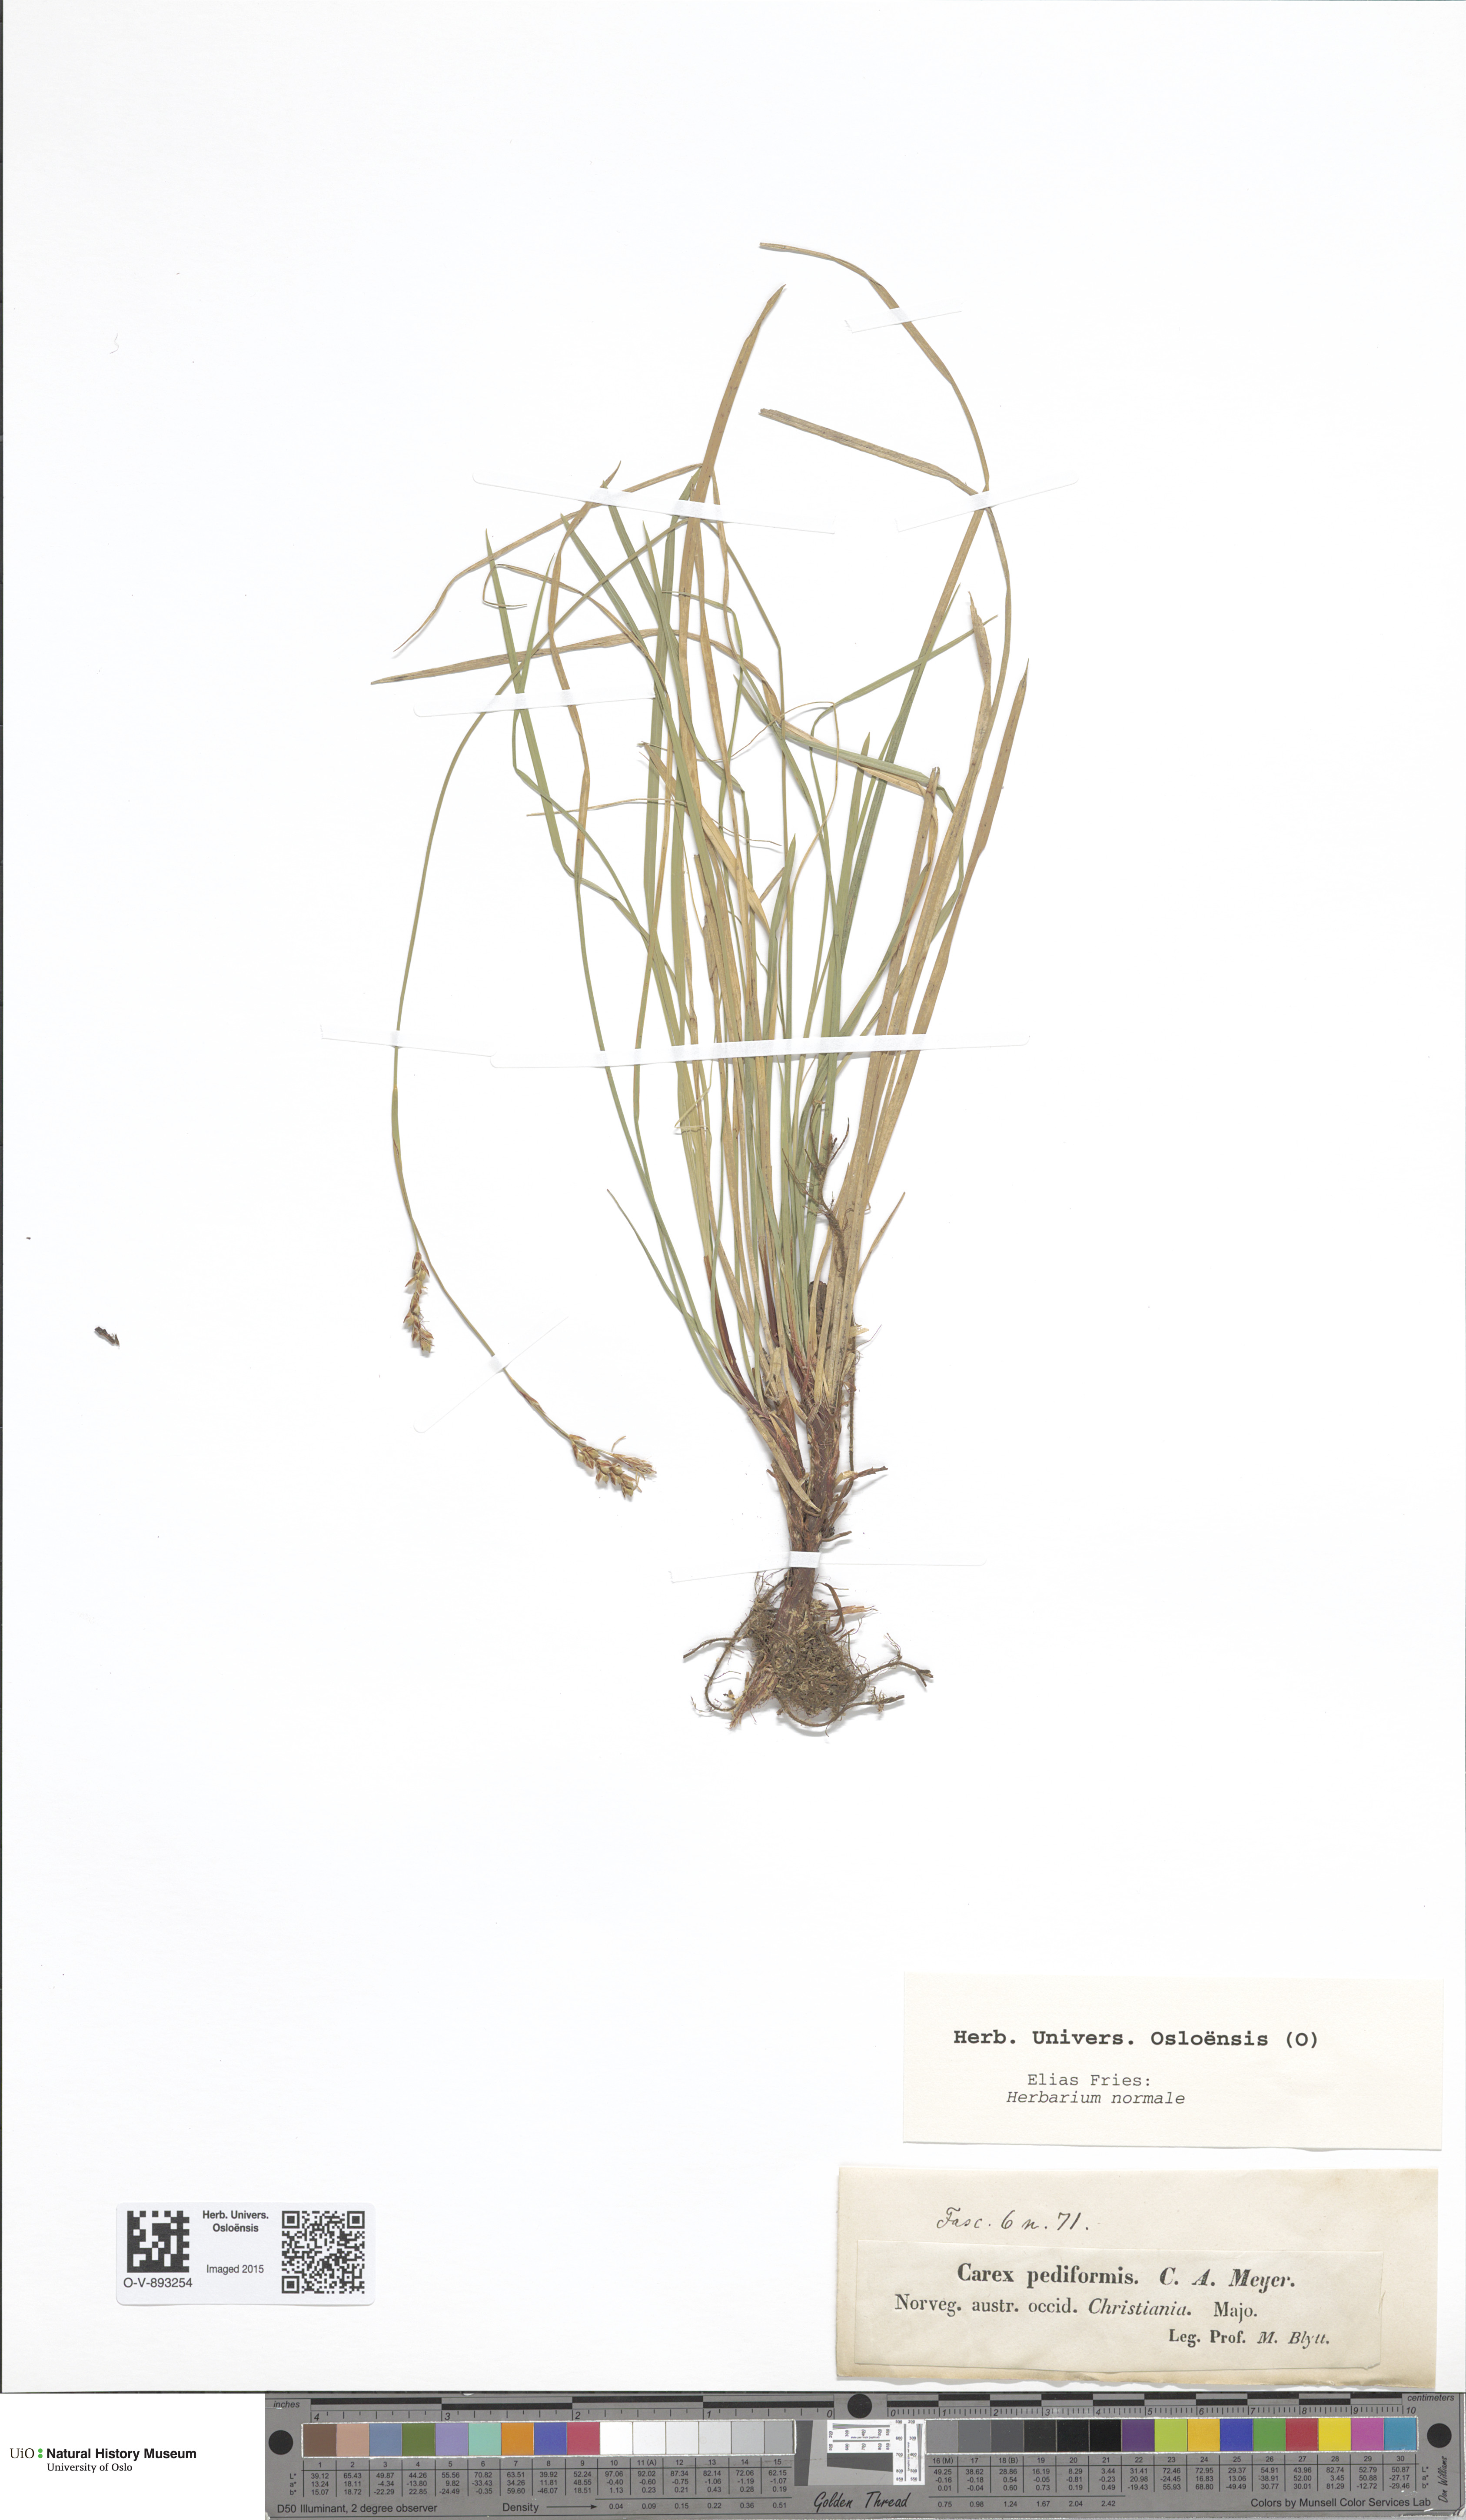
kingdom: Plantae
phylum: Tracheophyta
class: Liliopsida
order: Poales
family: Cyperaceae
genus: Carex
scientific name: Carex rhizina
